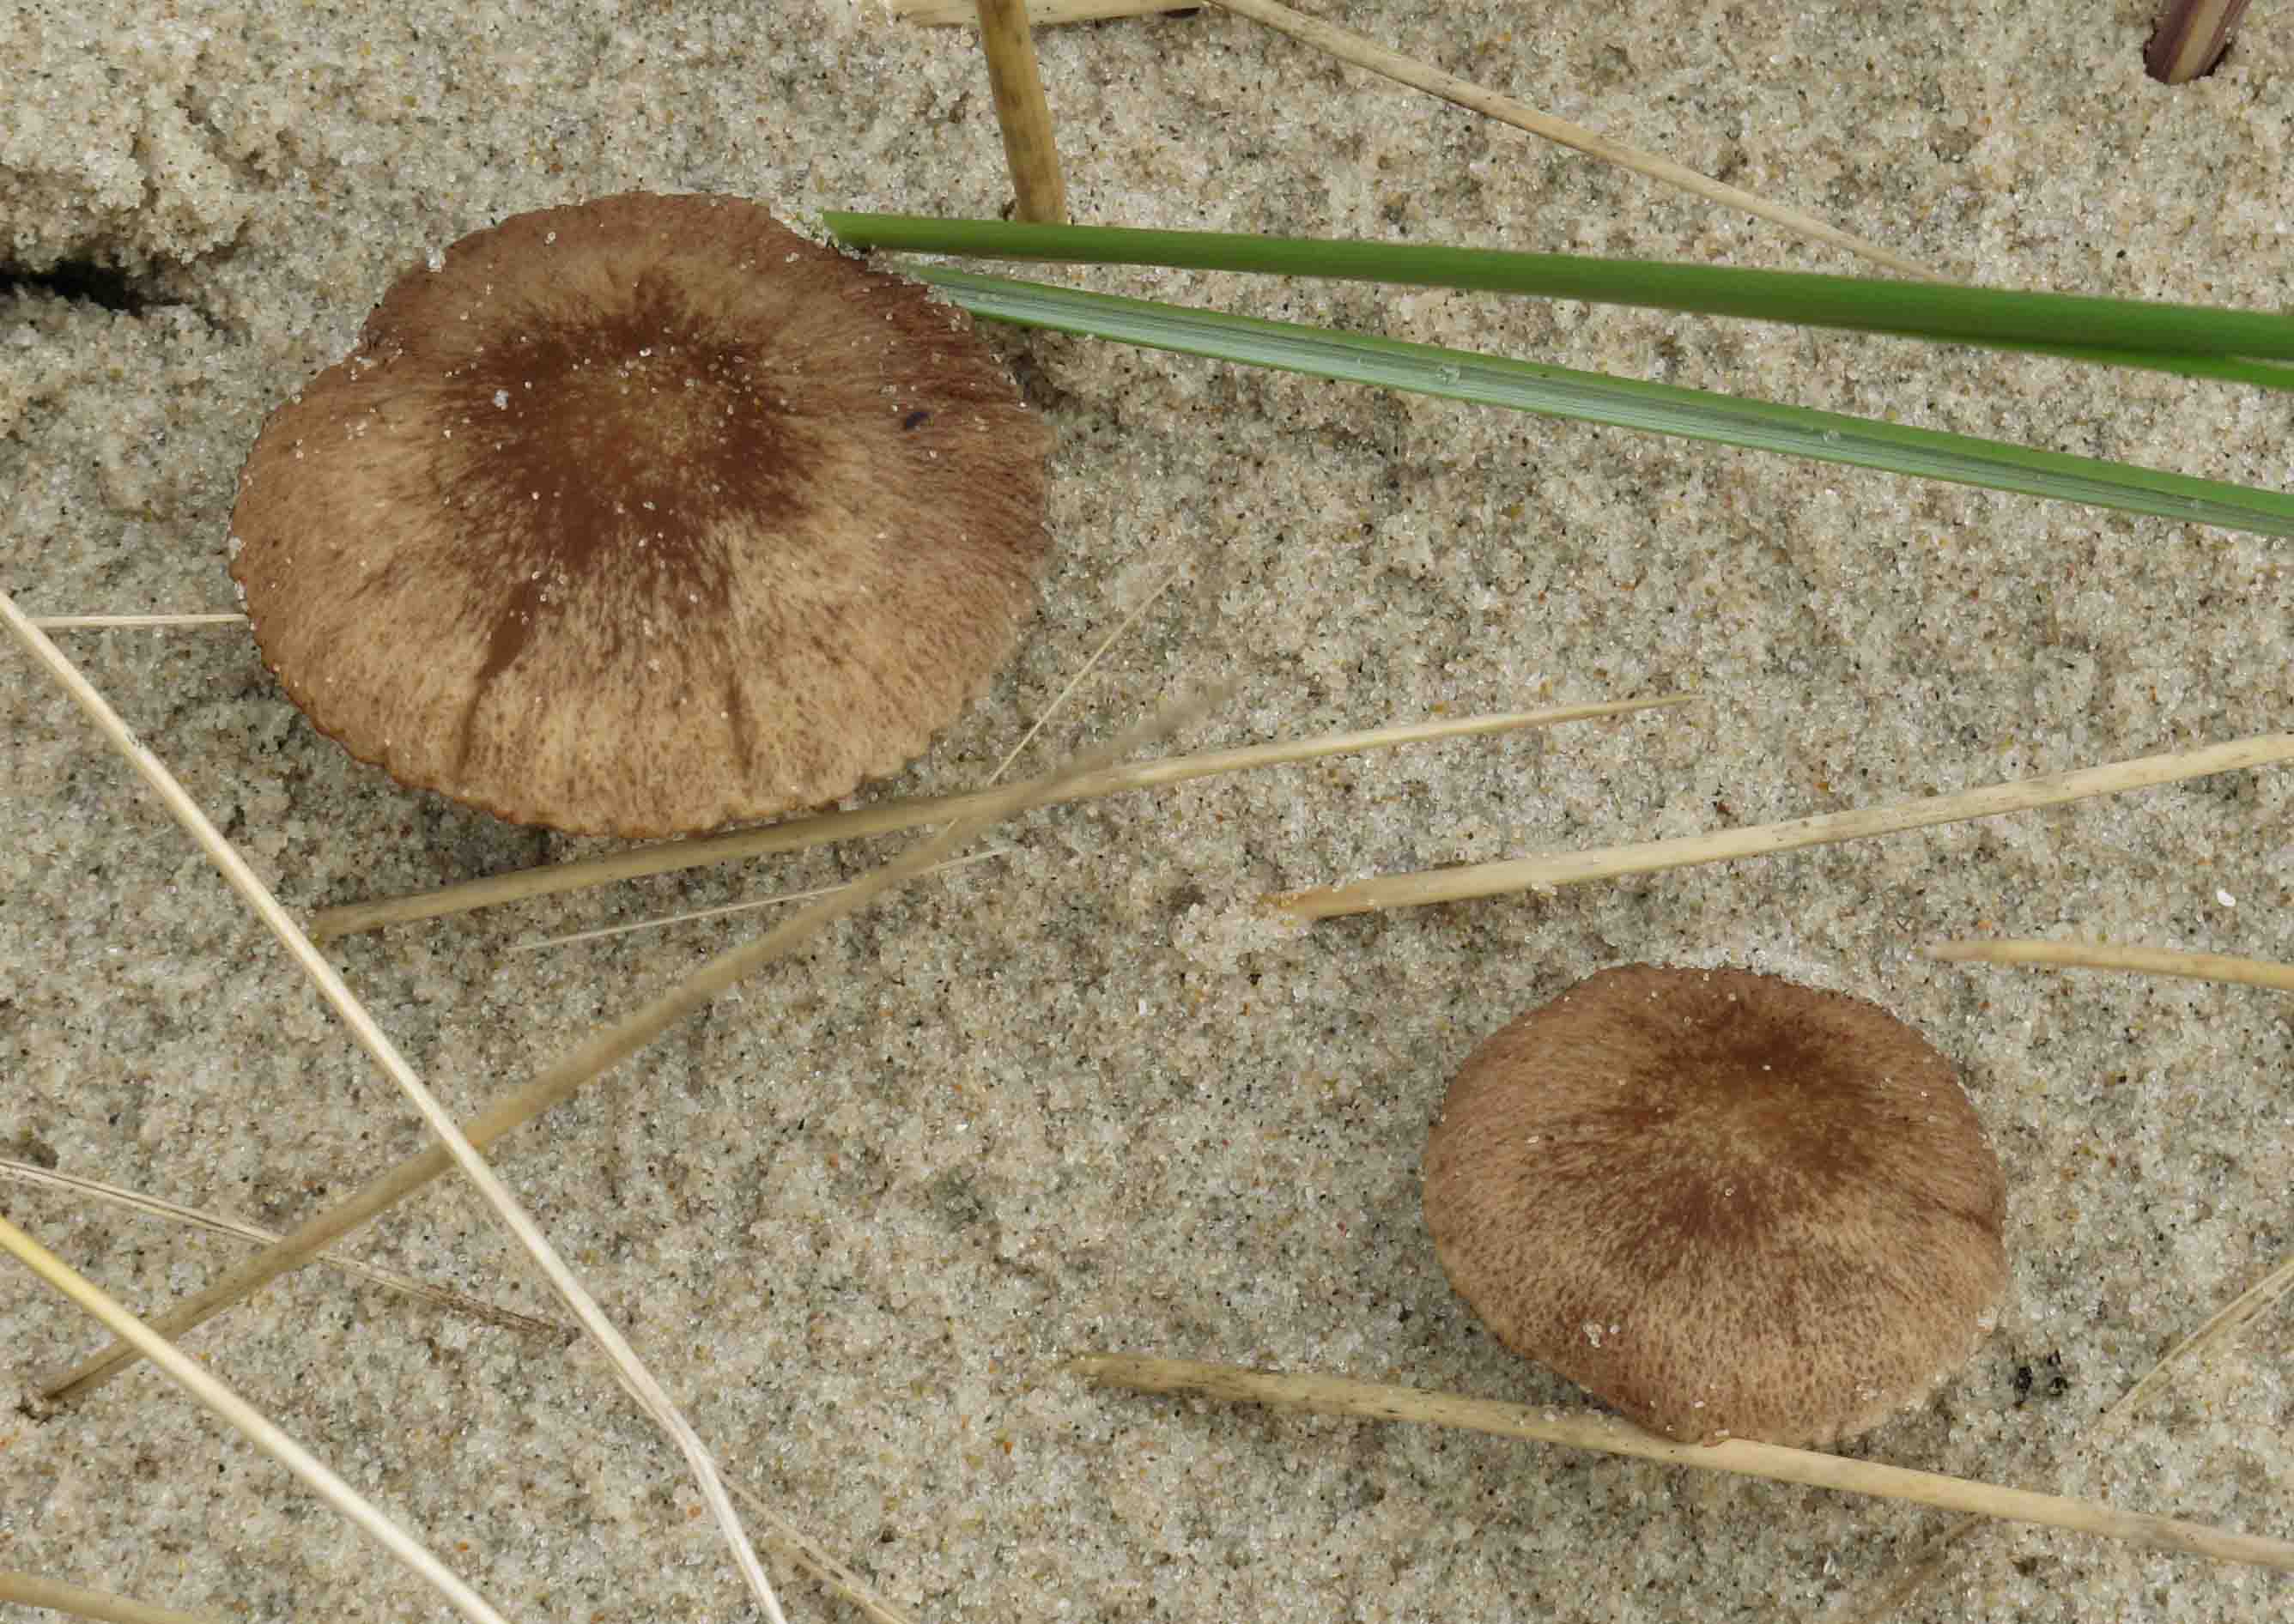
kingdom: Fungi
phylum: Basidiomycota
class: Agaricomycetes
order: Agaricales
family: Psathyrellaceae
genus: Psathyrella
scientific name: Psathyrella ammophila
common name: klit-mørkhat
